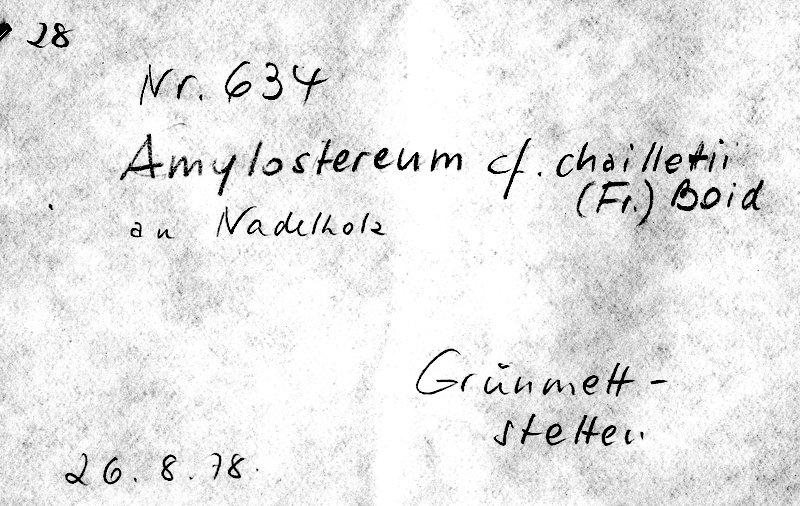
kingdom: Fungi
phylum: Basidiomycota
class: Agaricomycetes
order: Russulales
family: Echinodontiaceae
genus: Amylostereum
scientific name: Amylostereum chailletii
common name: Powdered duster
